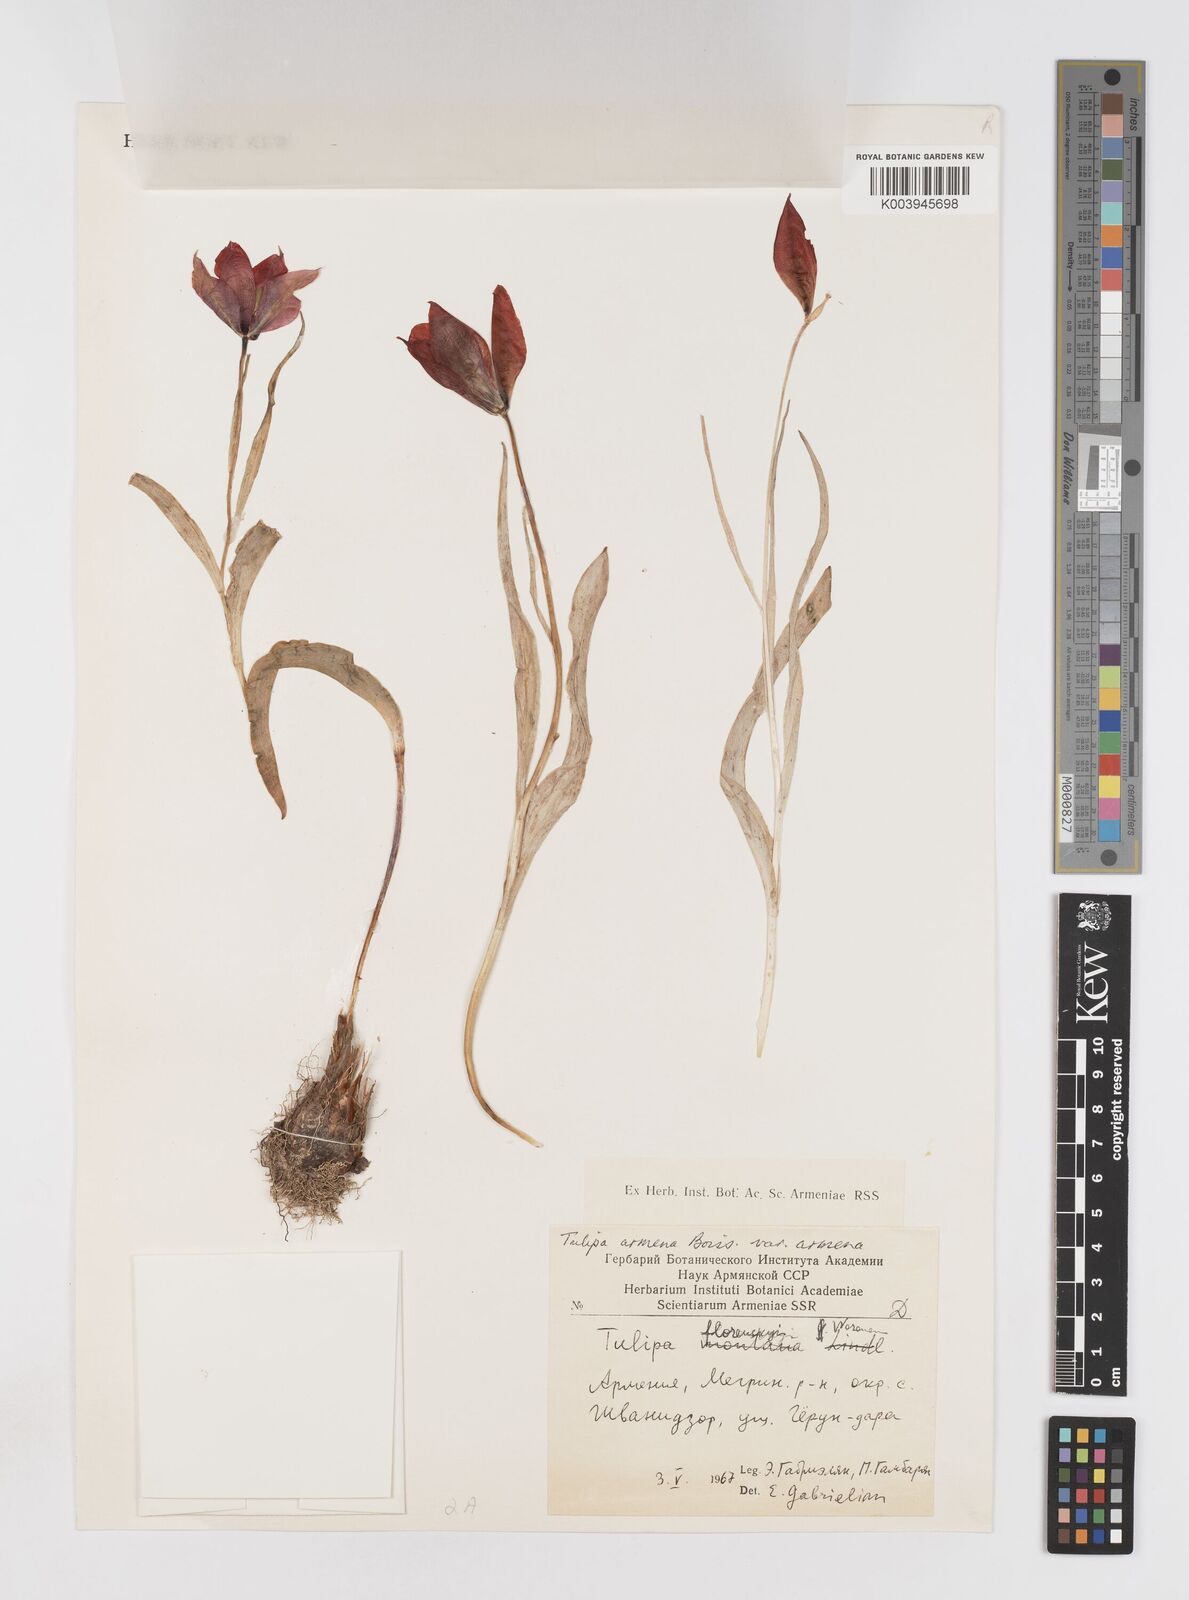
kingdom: Plantae
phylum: Tracheophyta
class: Liliopsida
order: Liliales
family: Liliaceae
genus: Tulipa
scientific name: Tulipa armena
